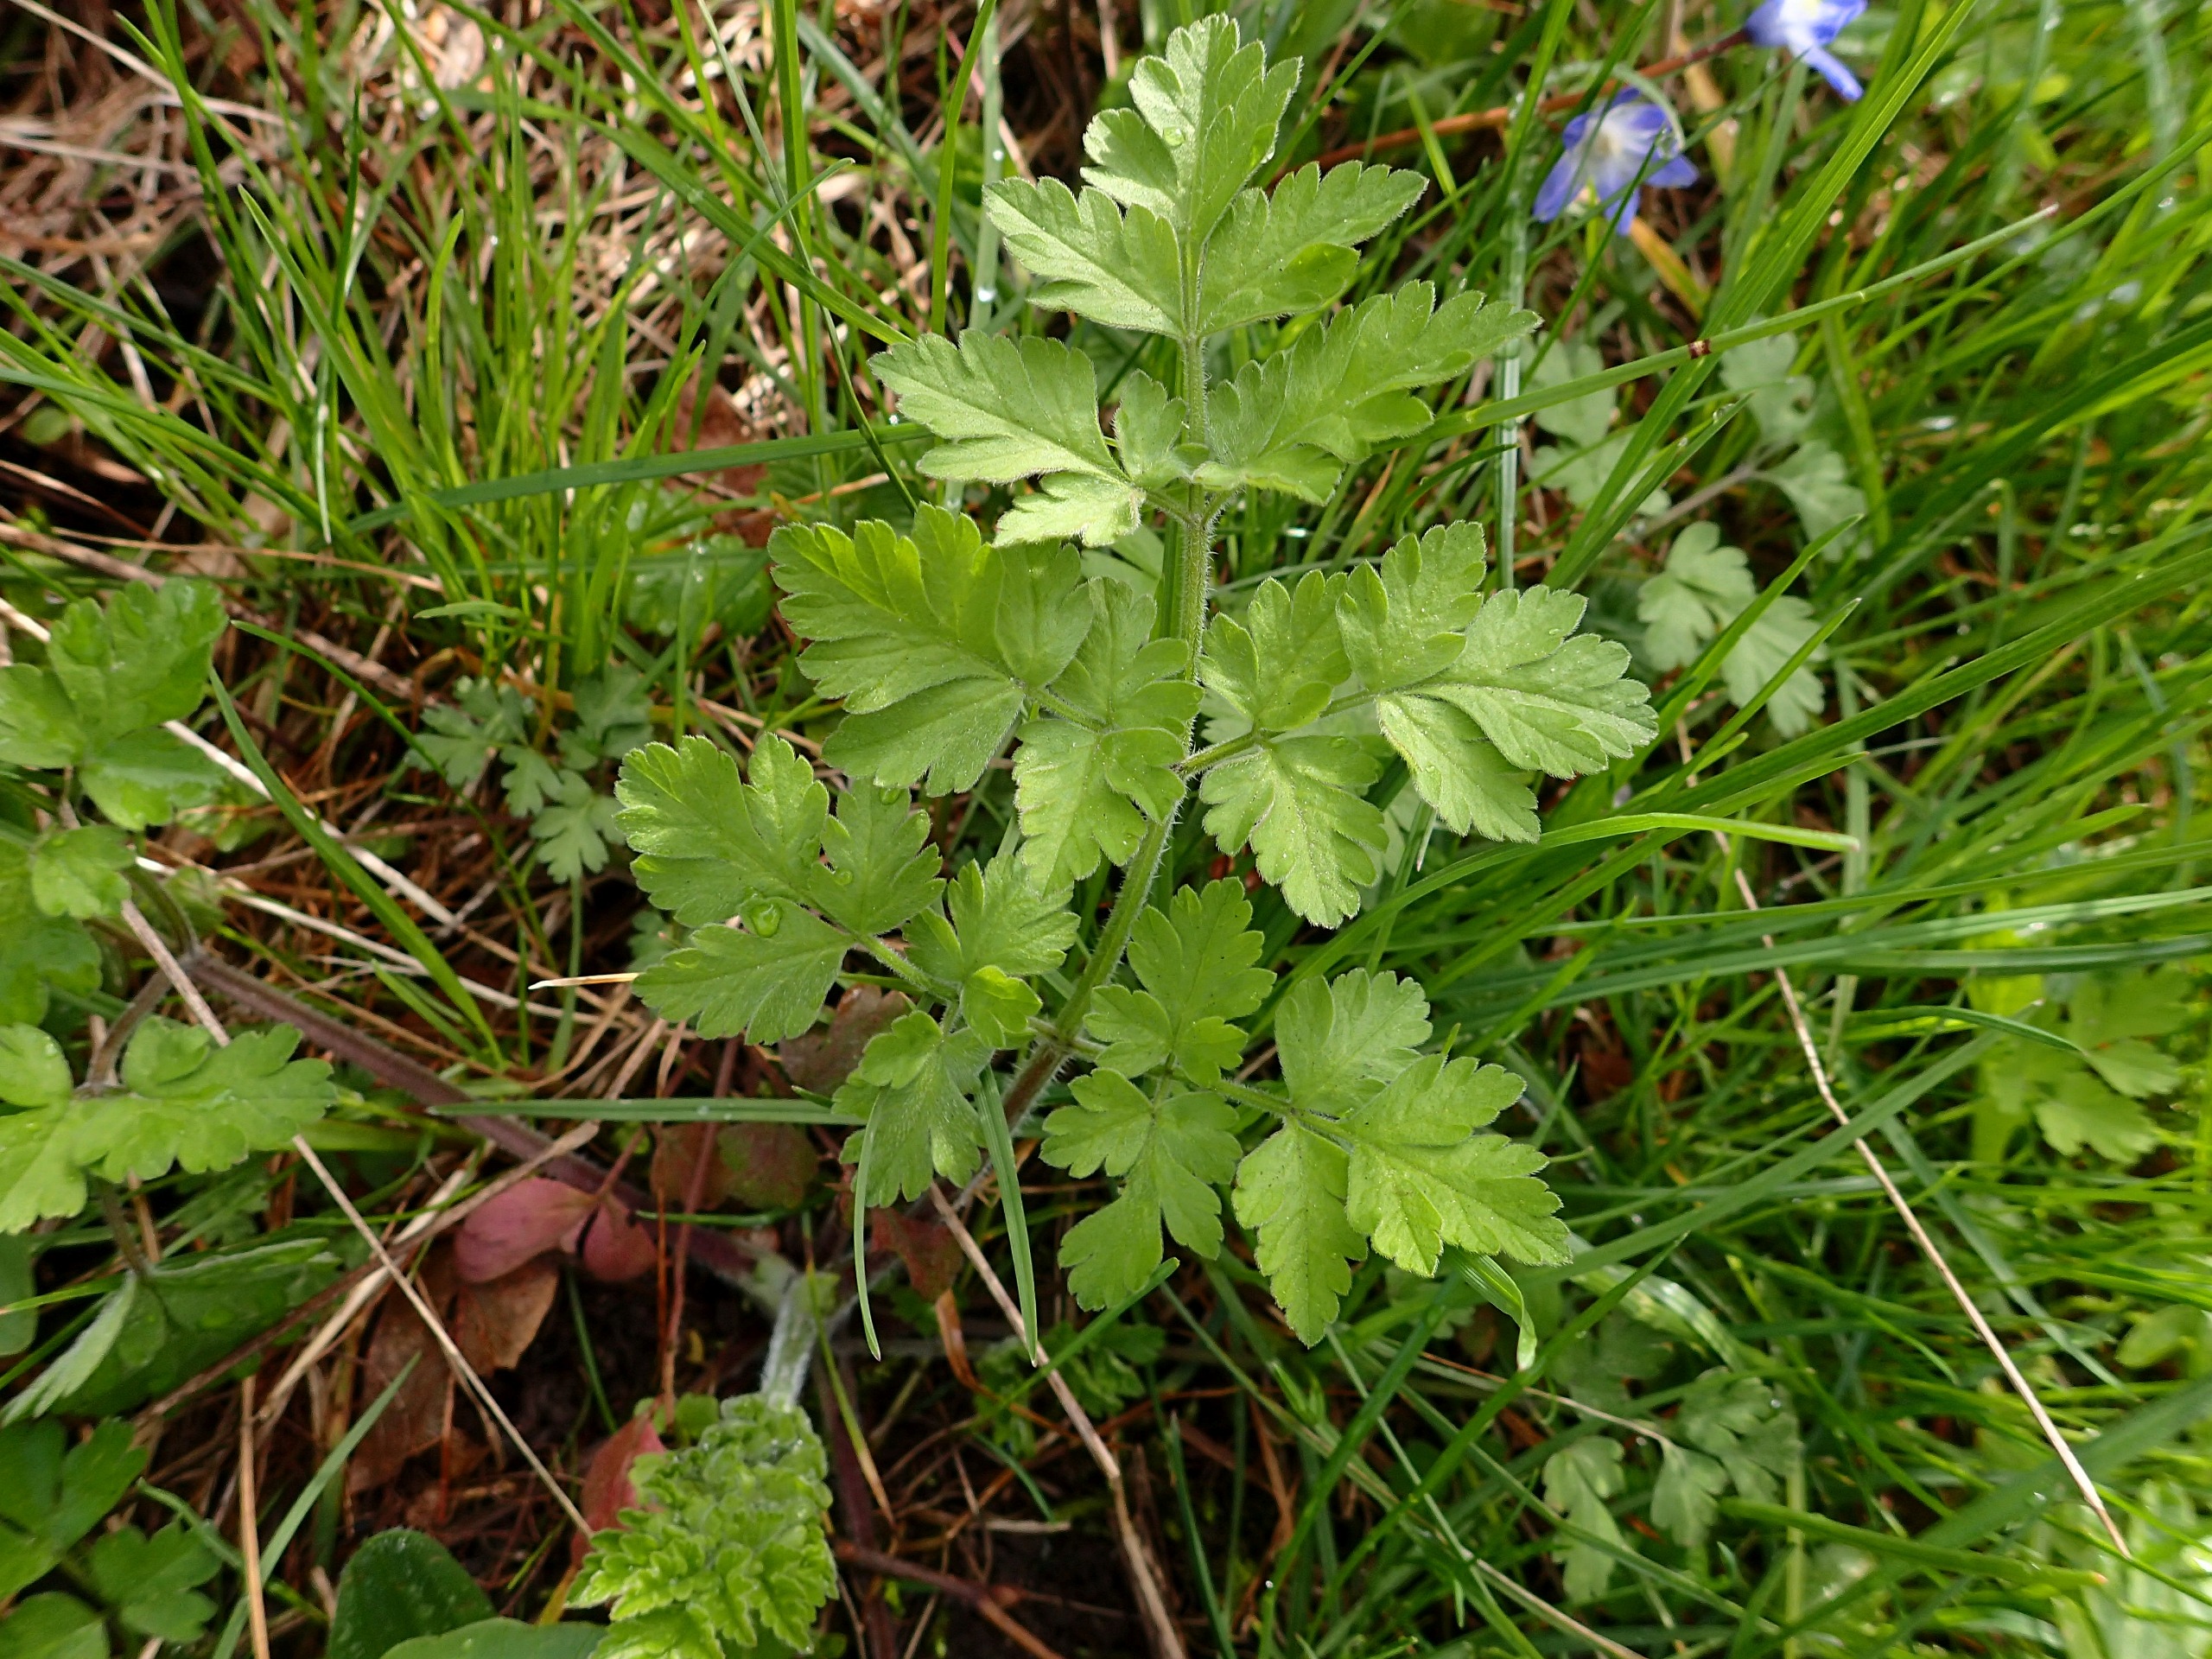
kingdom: Plantae
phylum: Tracheophyta
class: Magnoliopsida
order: Apiales
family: Apiaceae
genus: Chaerophyllum
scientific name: Chaerophyllum temulum
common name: Almindelig hulsvøb
